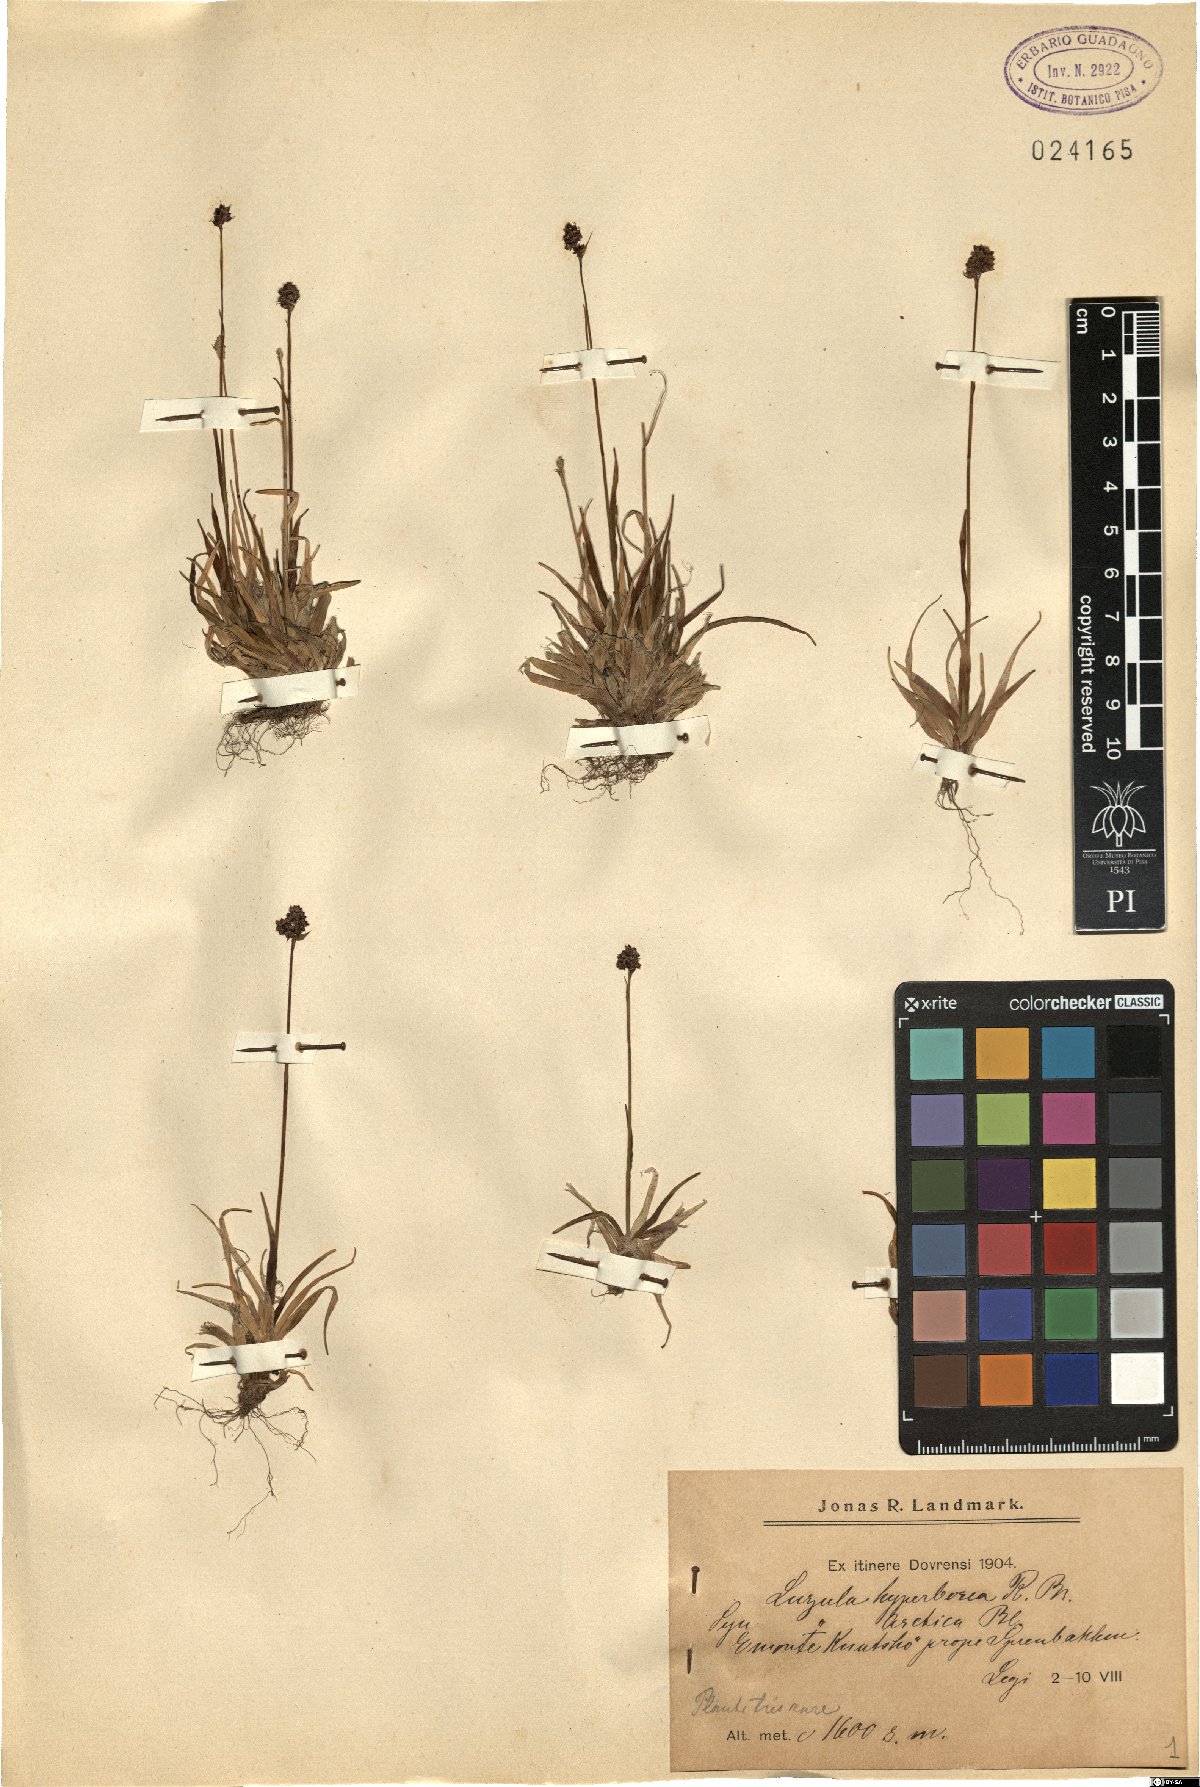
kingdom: Plantae
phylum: Tracheophyta
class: Liliopsida
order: Poales
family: Juncaceae
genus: Luzula
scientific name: Luzula confusa
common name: Northern wood rush
